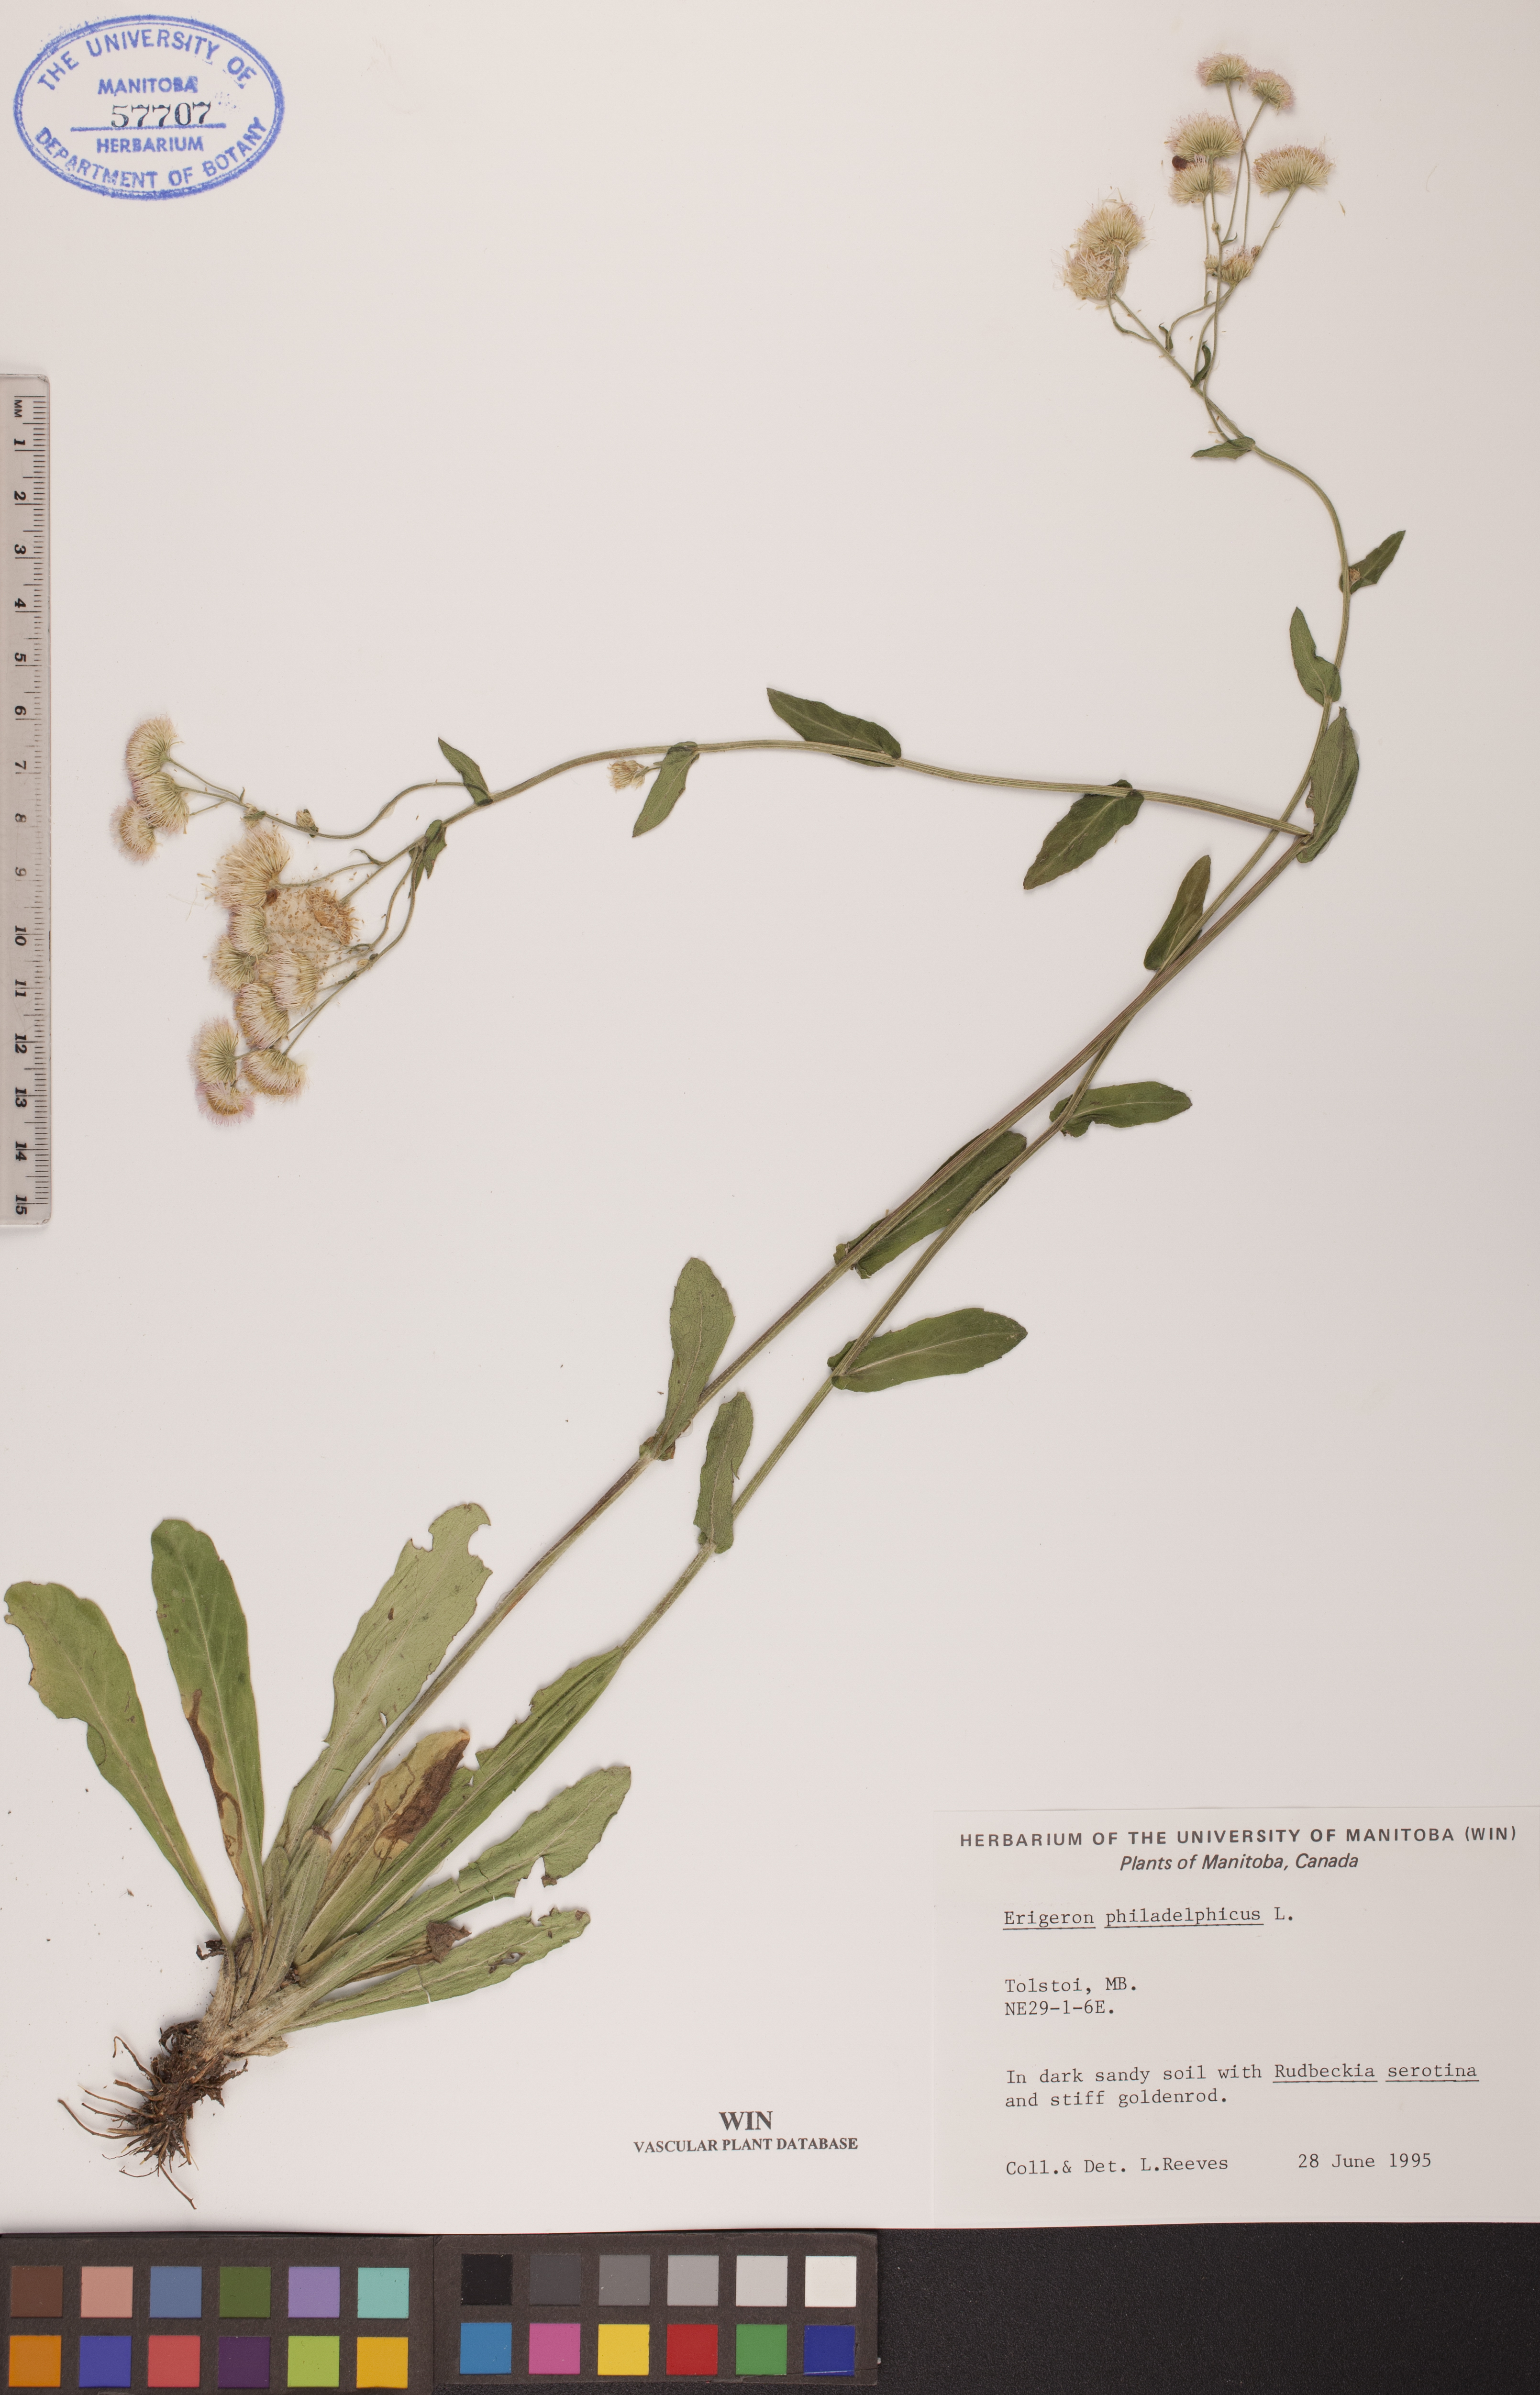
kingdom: Plantae
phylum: Tracheophyta
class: Magnoliopsida
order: Asterales
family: Asteraceae
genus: Erigeron
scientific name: Erigeron philadelphicus
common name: Robin's-plantain
